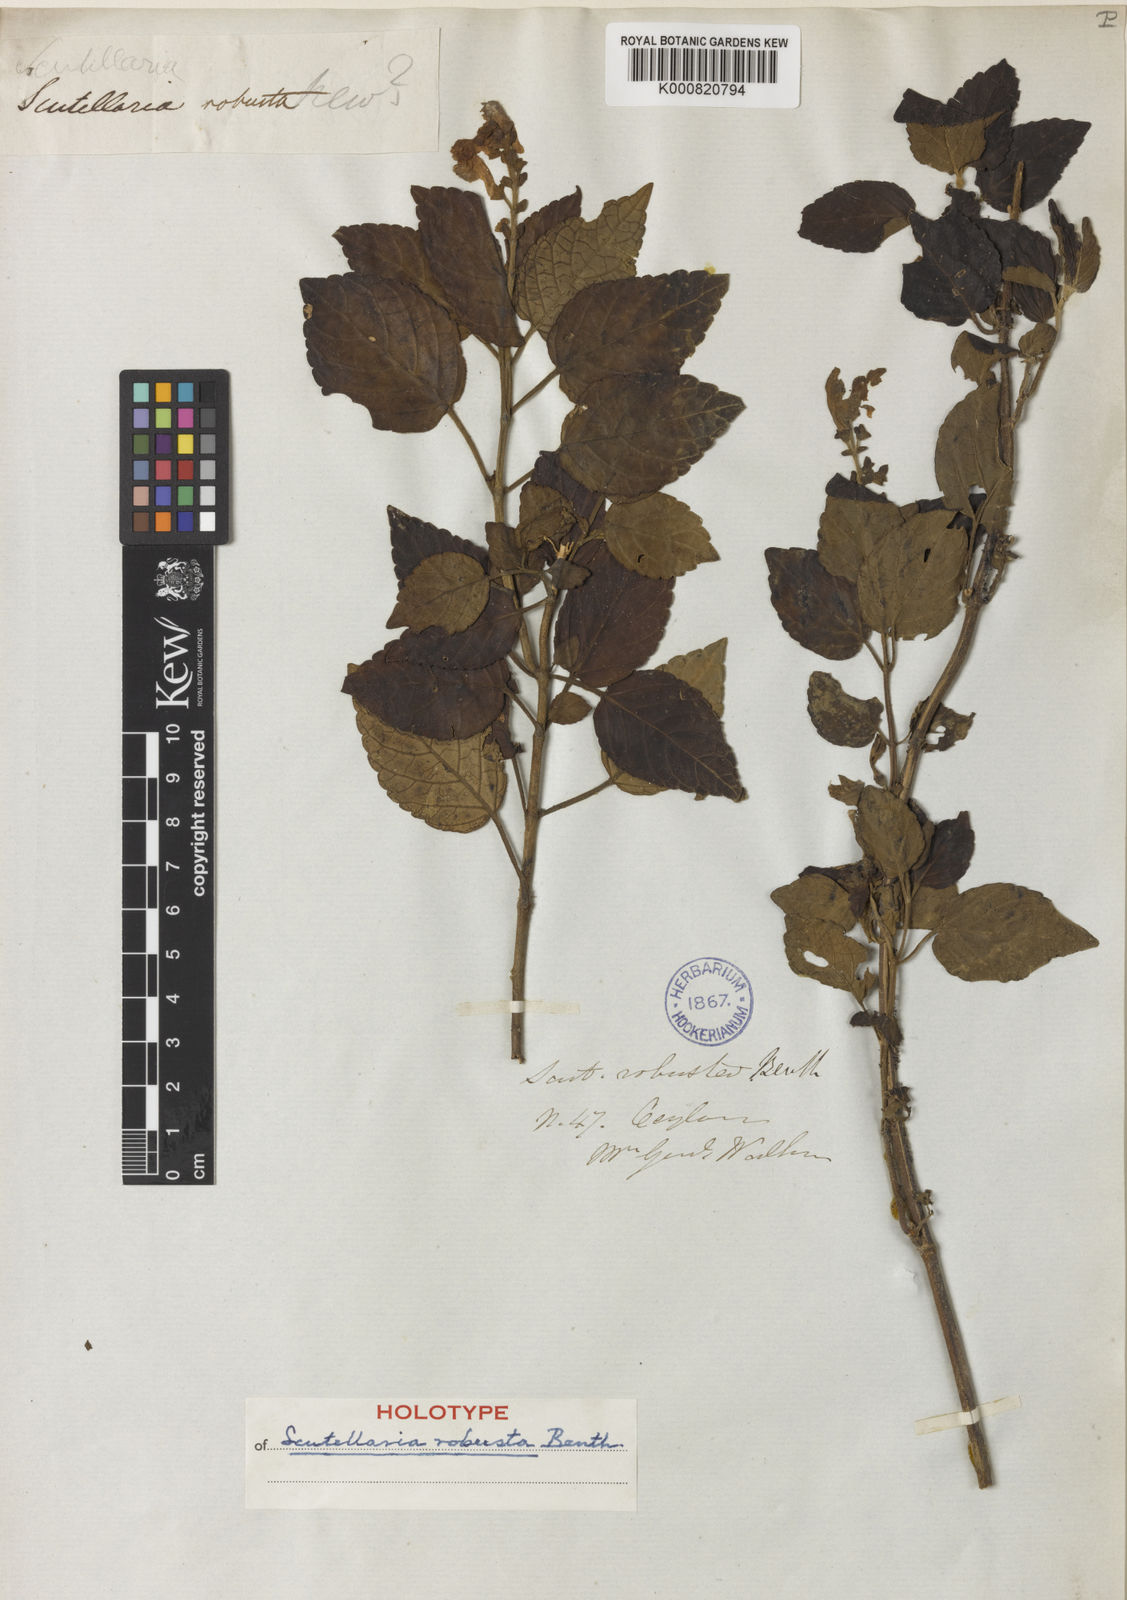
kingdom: Plantae
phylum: Tracheophyta
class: Magnoliopsida
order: Lamiales
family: Lamiaceae
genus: Scutellaria
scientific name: Scutellaria violacea
